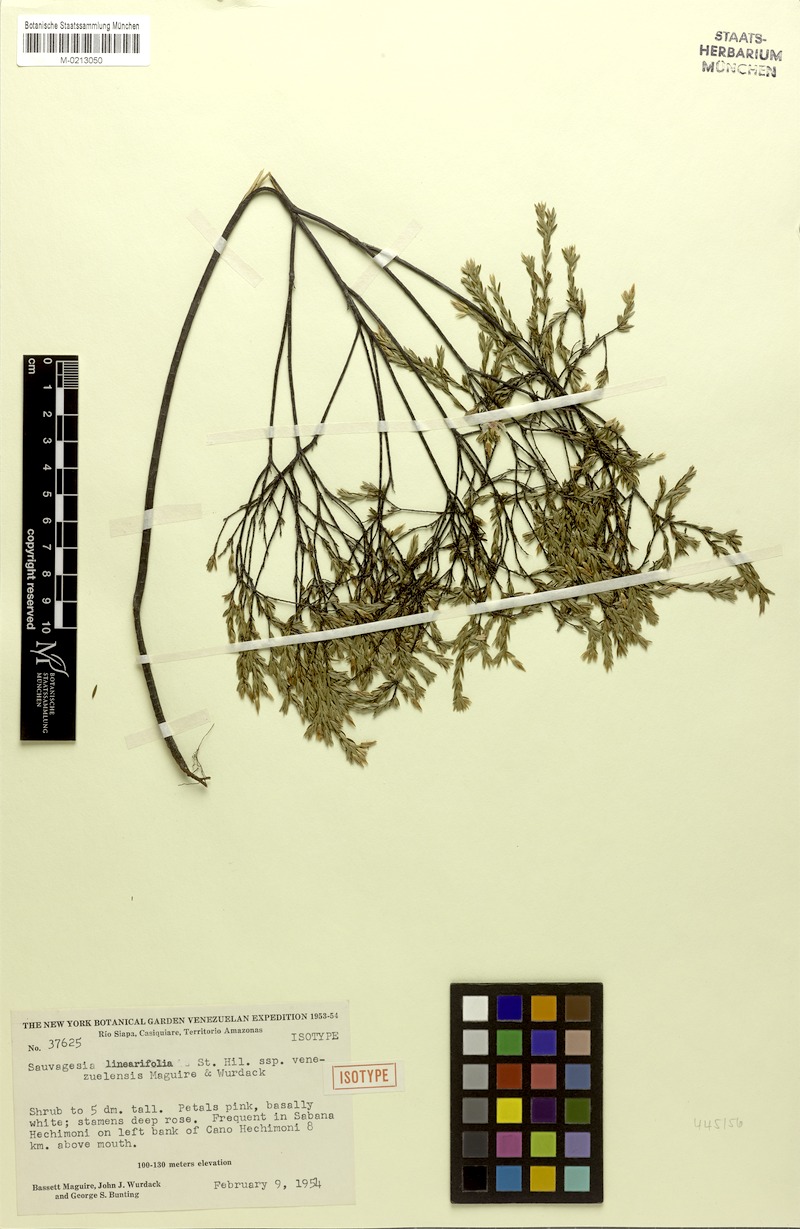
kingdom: Plantae
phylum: Tracheophyta
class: Magnoliopsida
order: Malpighiales
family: Ochnaceae
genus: Sauvagesia
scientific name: Sauvagesia linearifolia
